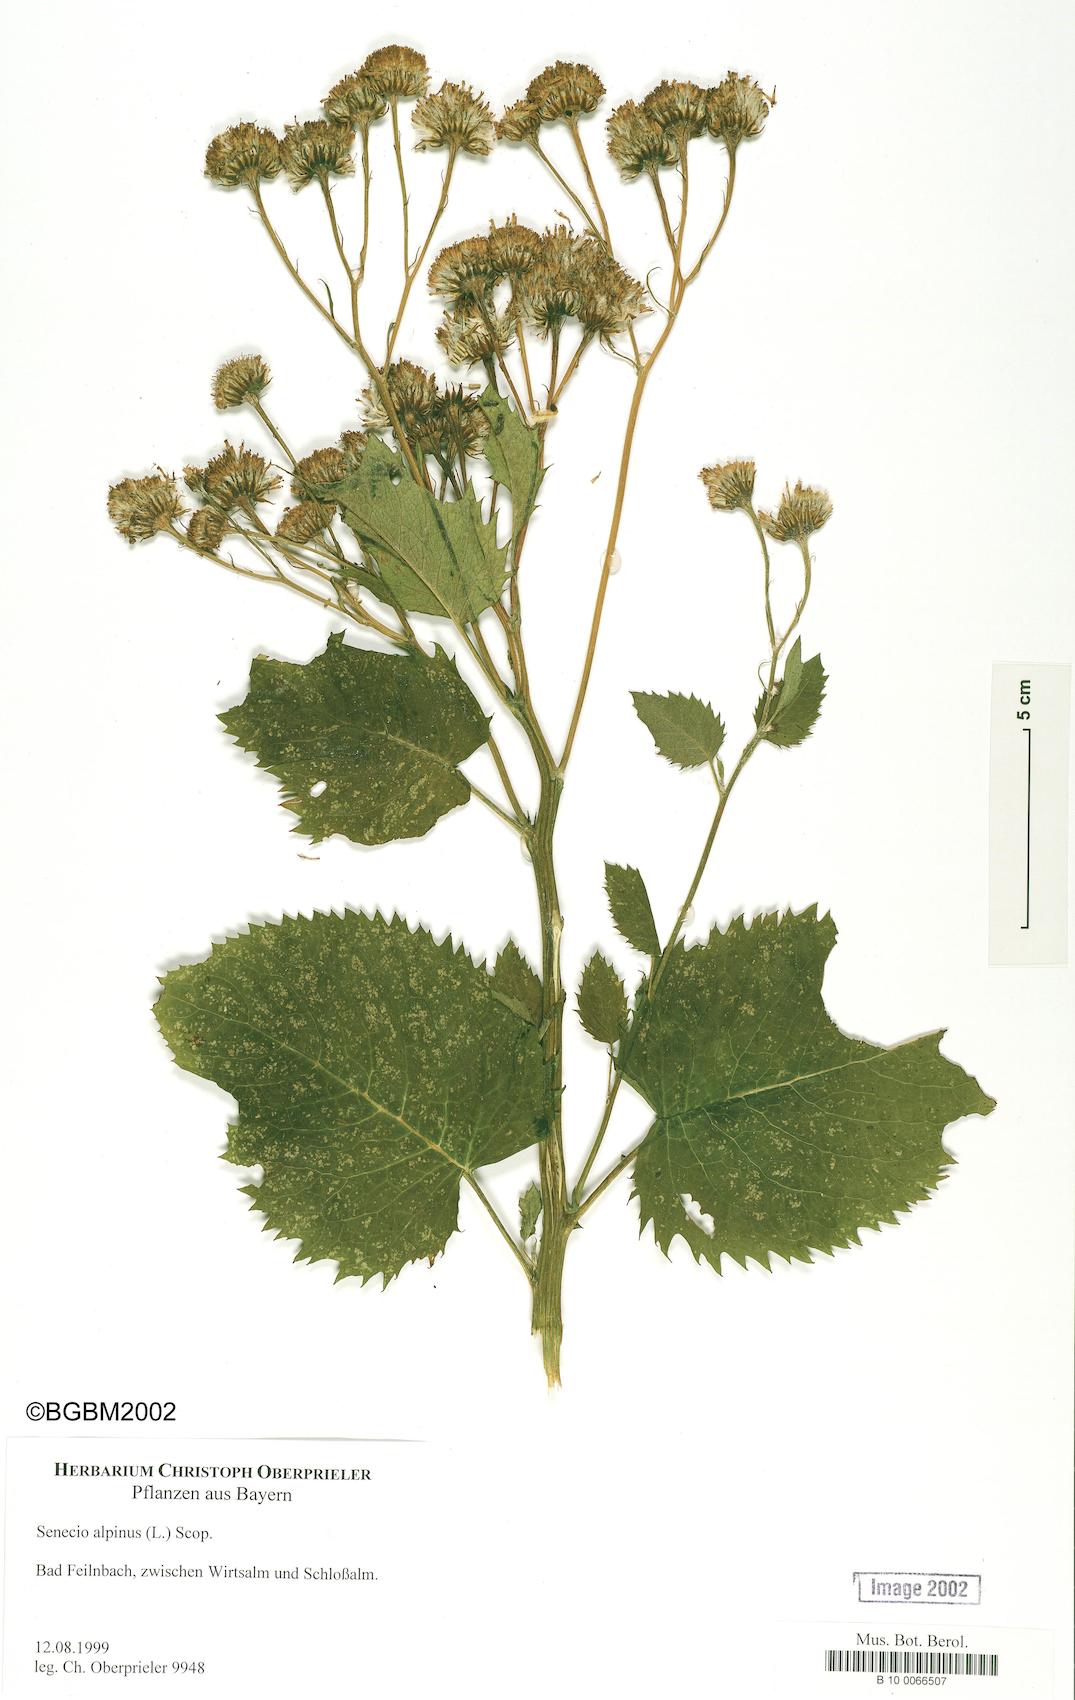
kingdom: Plantae
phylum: Tracheophyta
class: Magnoliopsida
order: Asterales
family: Asteraceae
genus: Jacobaea
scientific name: Jacobaea alpina
